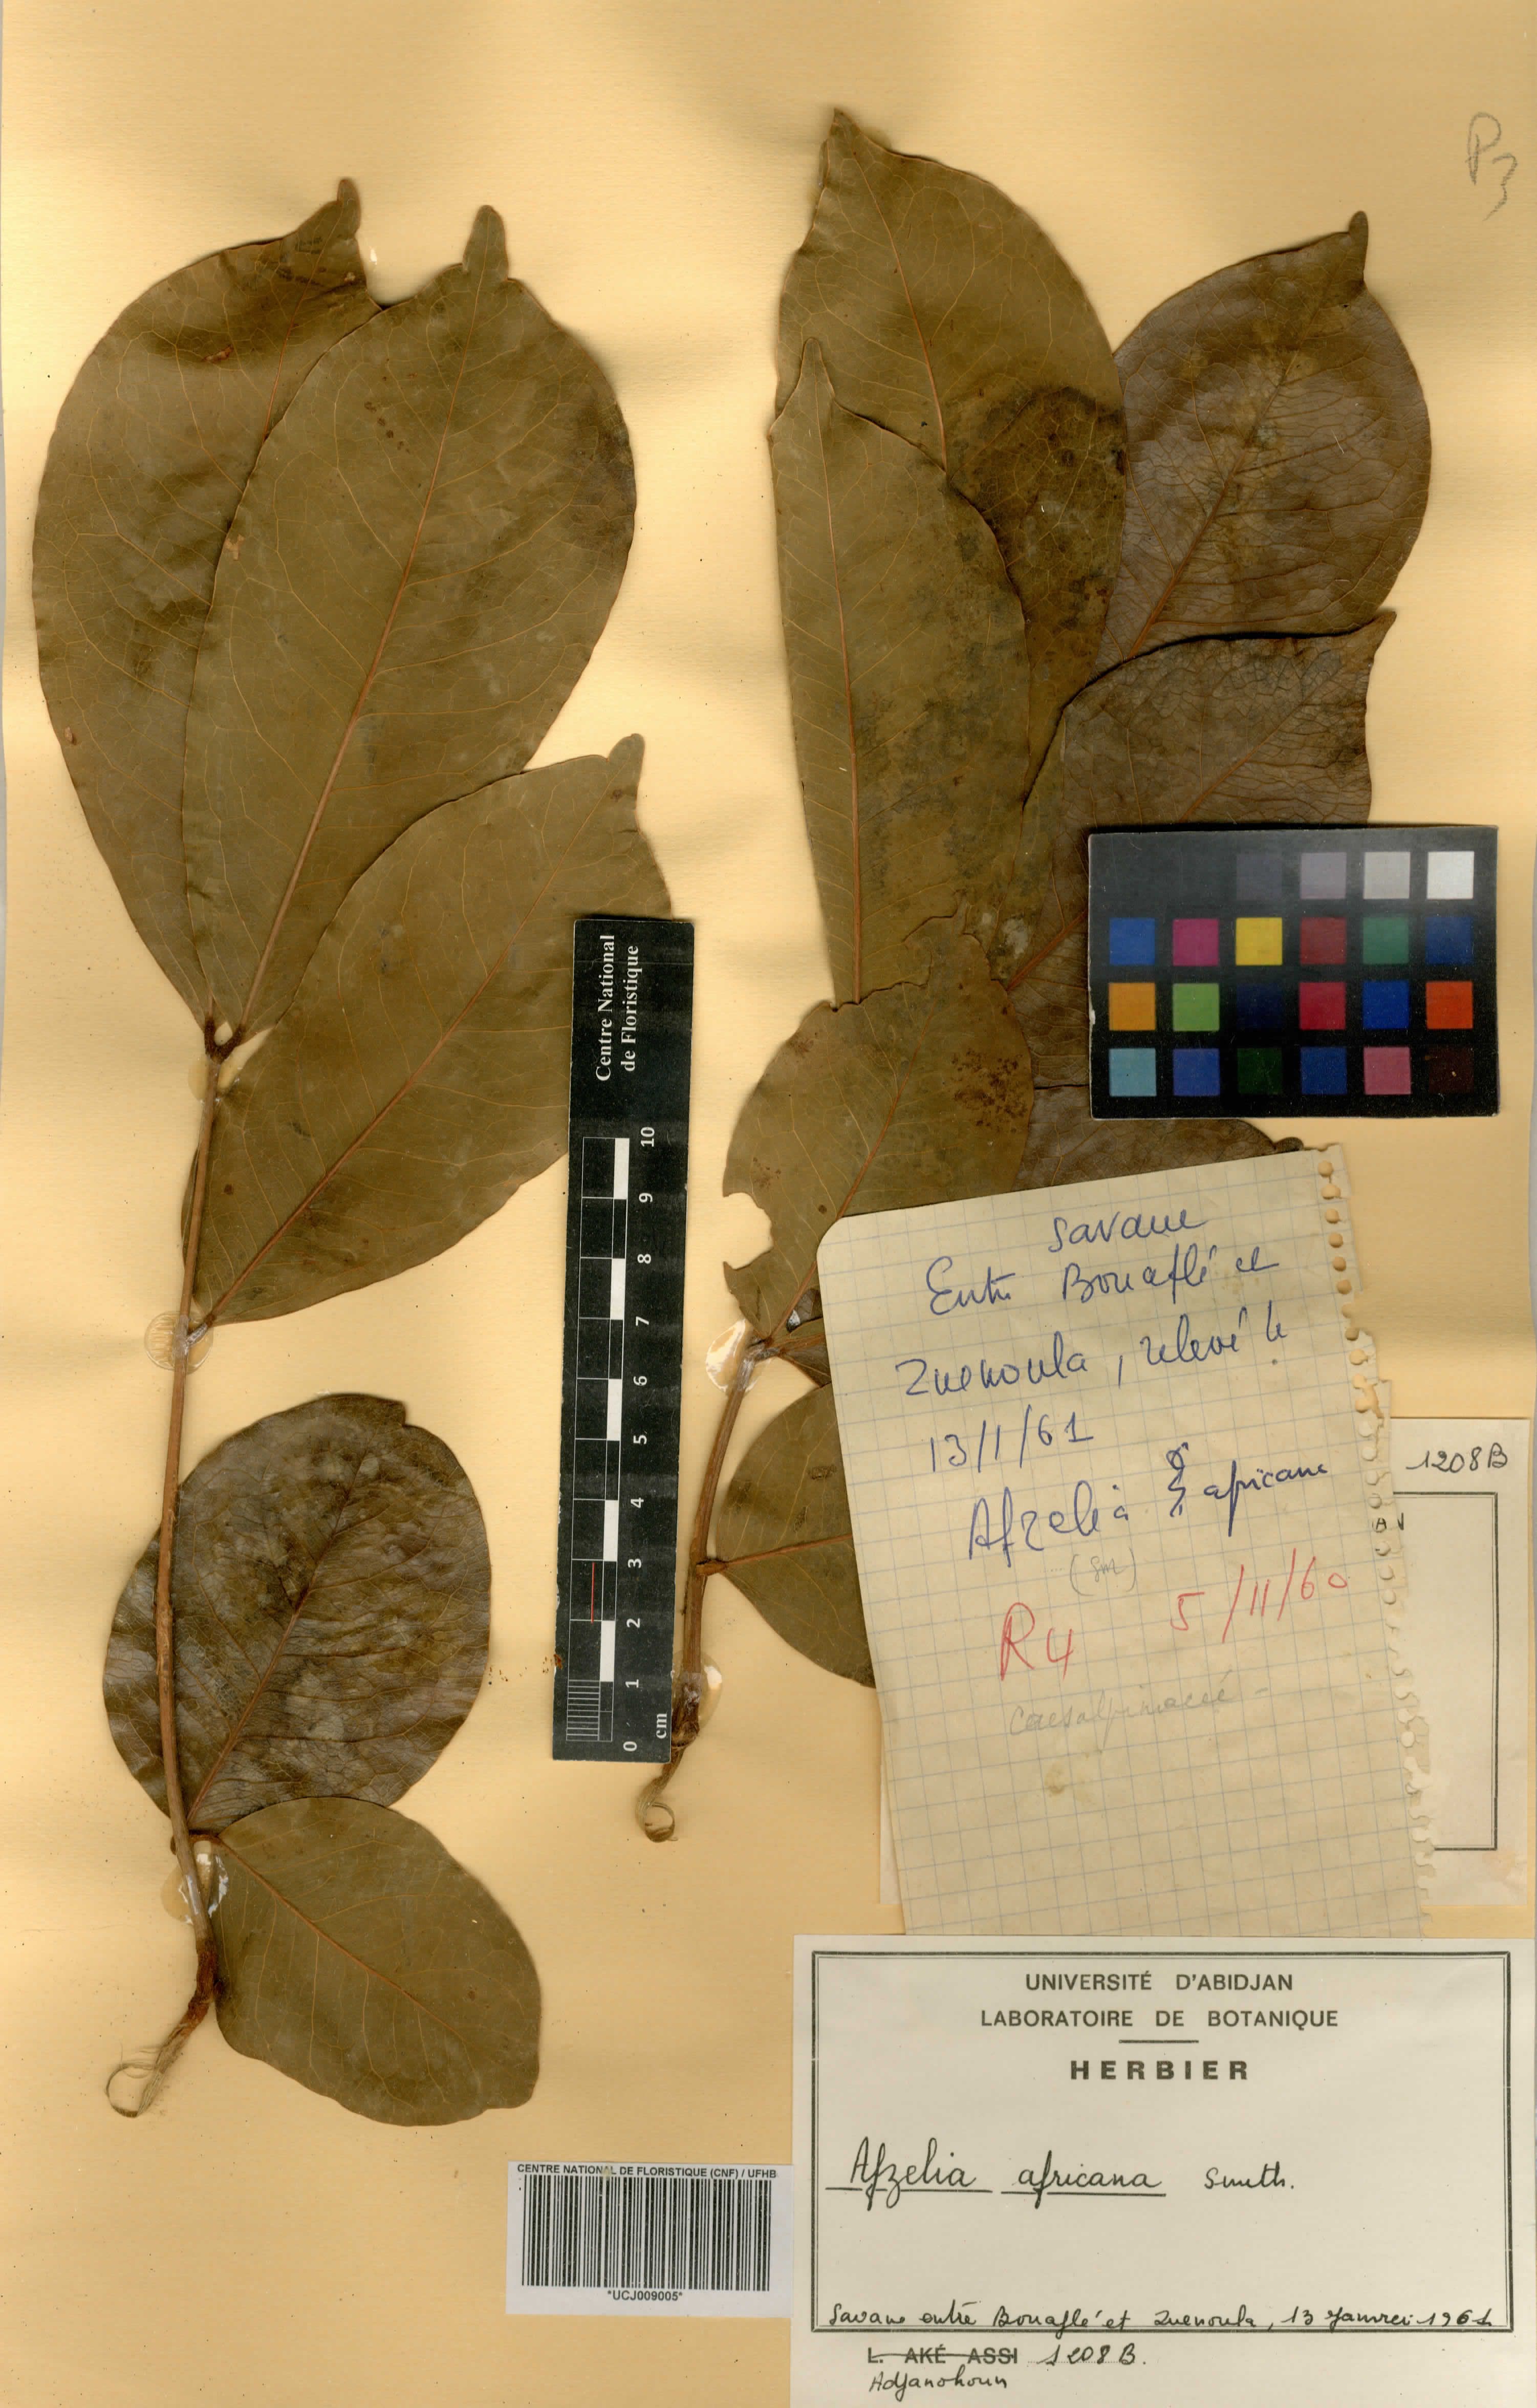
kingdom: Plantae
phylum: Tracheophyta
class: Magnoliopsida
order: Fabales
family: Fabaceae
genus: Afzelia
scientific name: Afzelia africana
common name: African-mahogany
